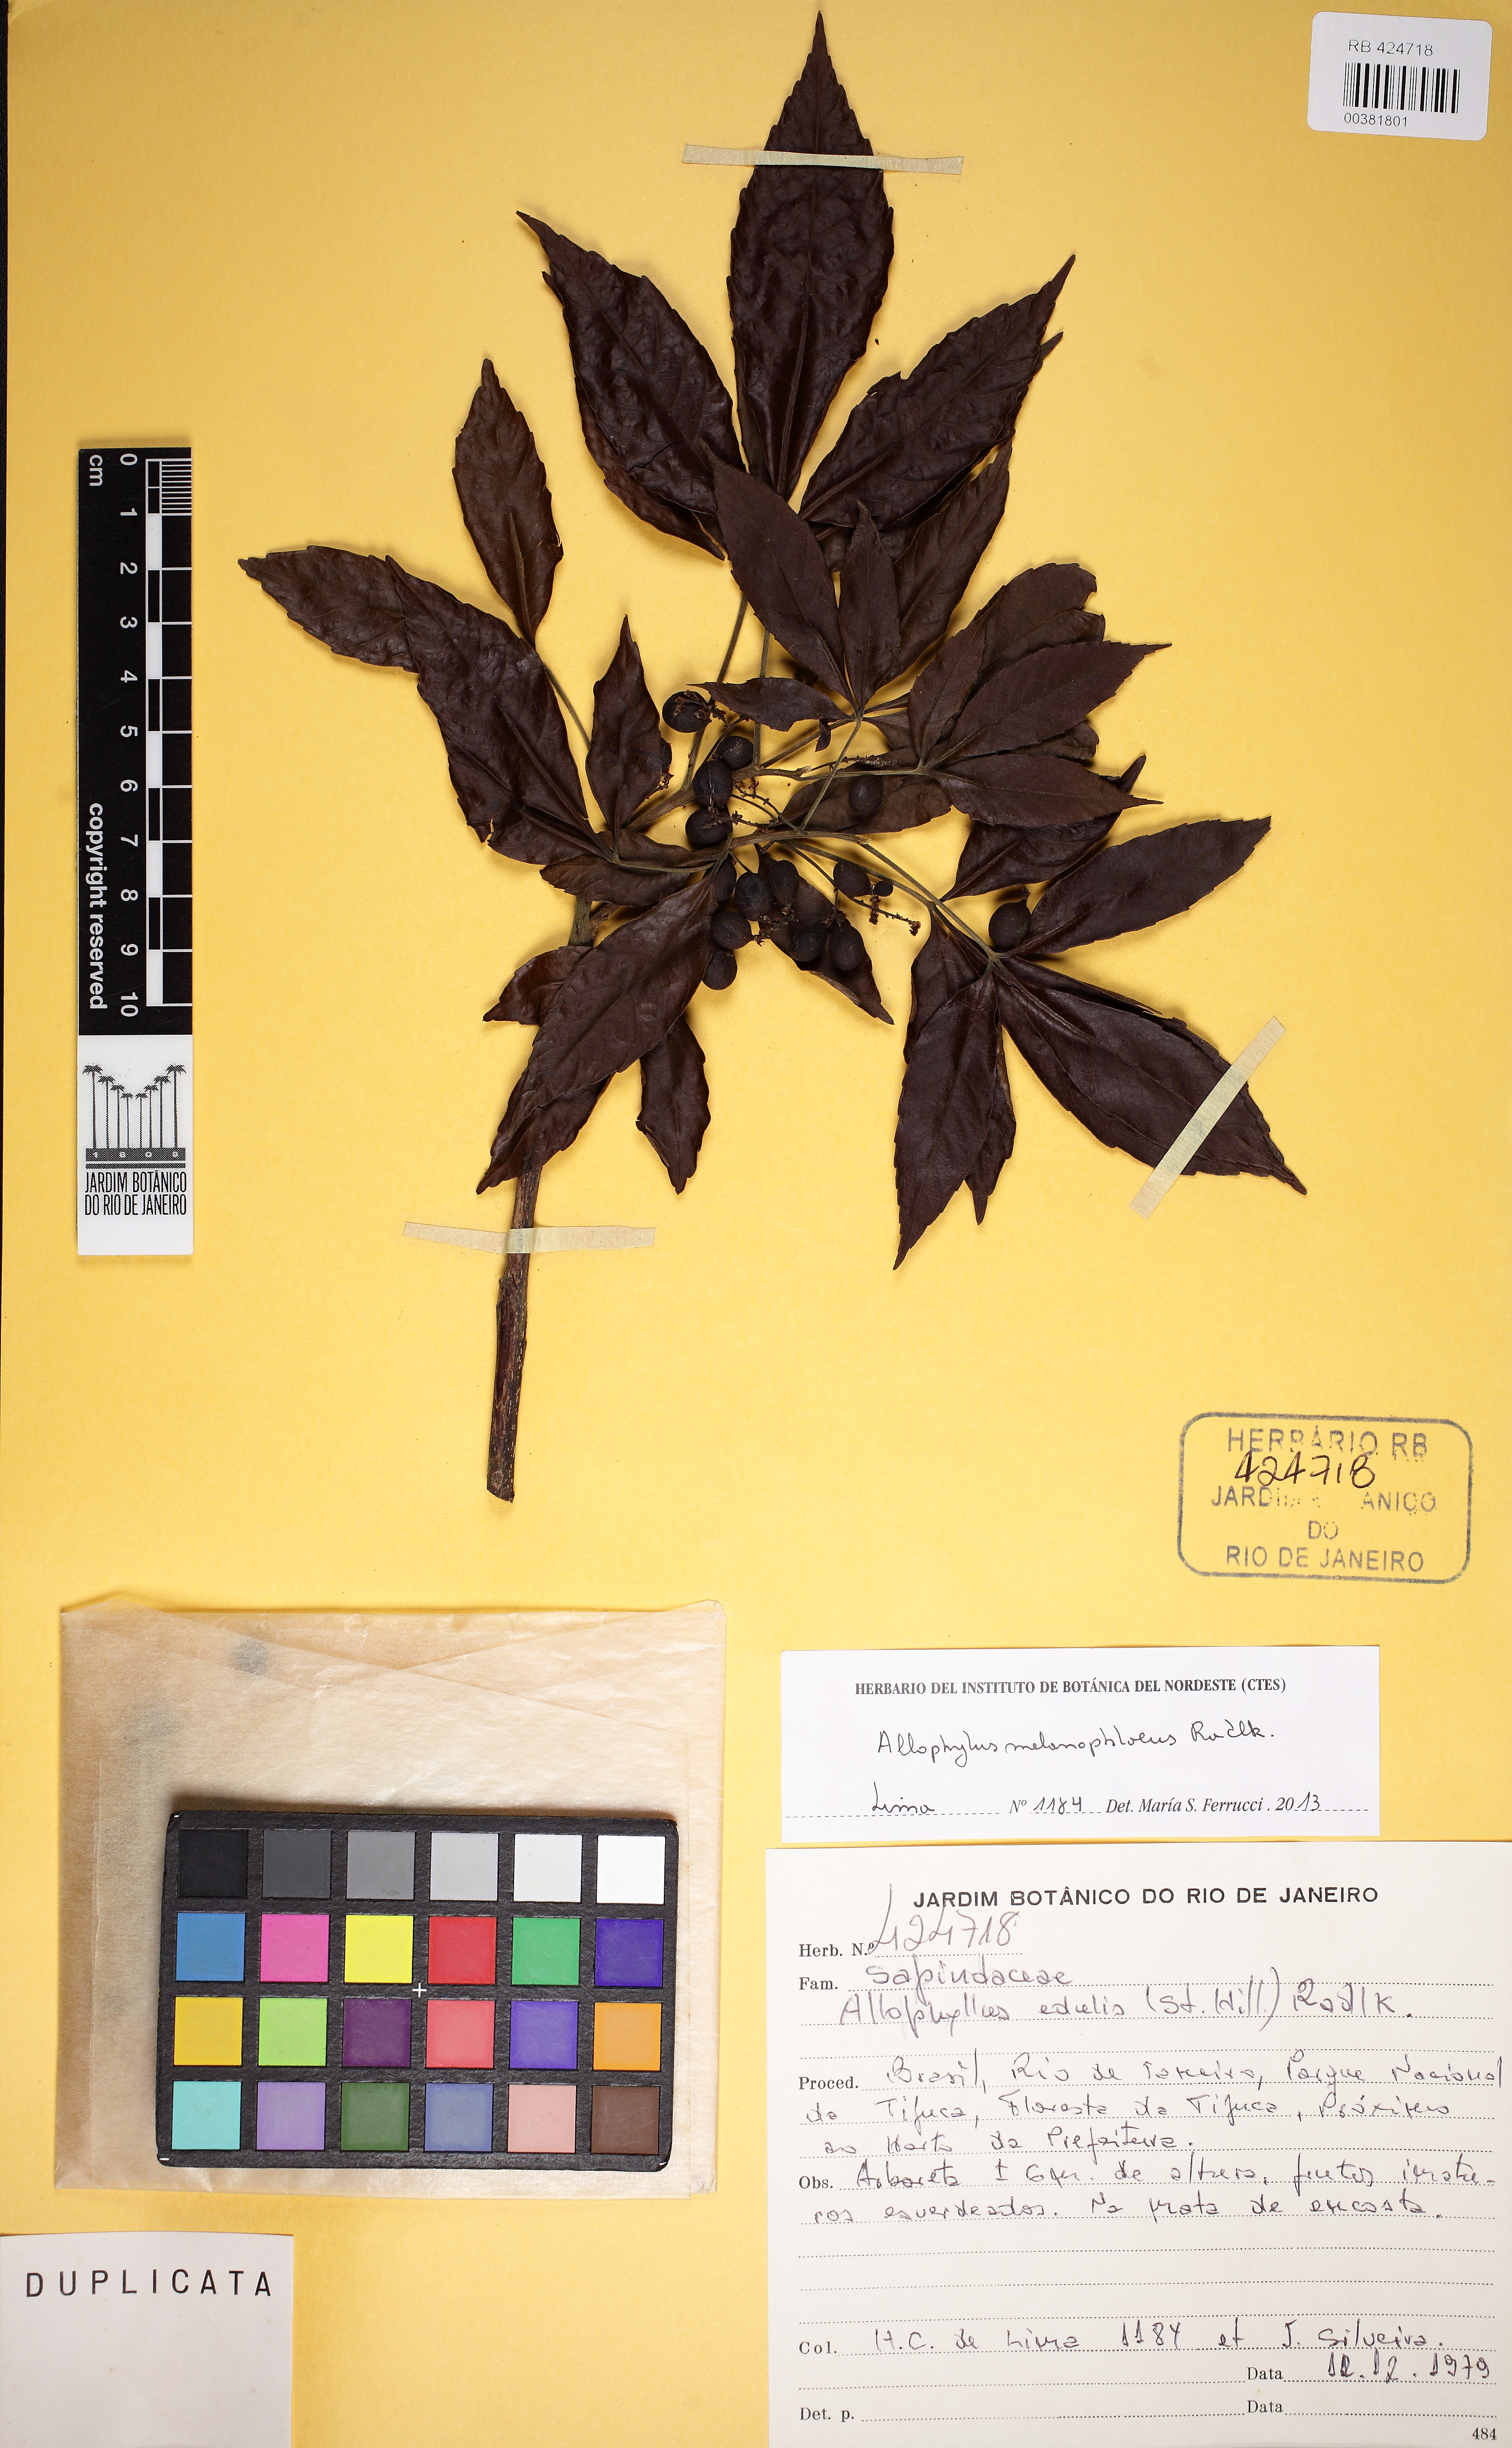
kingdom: Plantae
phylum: Tracheophyta
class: Magnoliopsida
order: Sapindales
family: Sapindaceae
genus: Allophylus
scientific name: Allophylus melanophloeus
